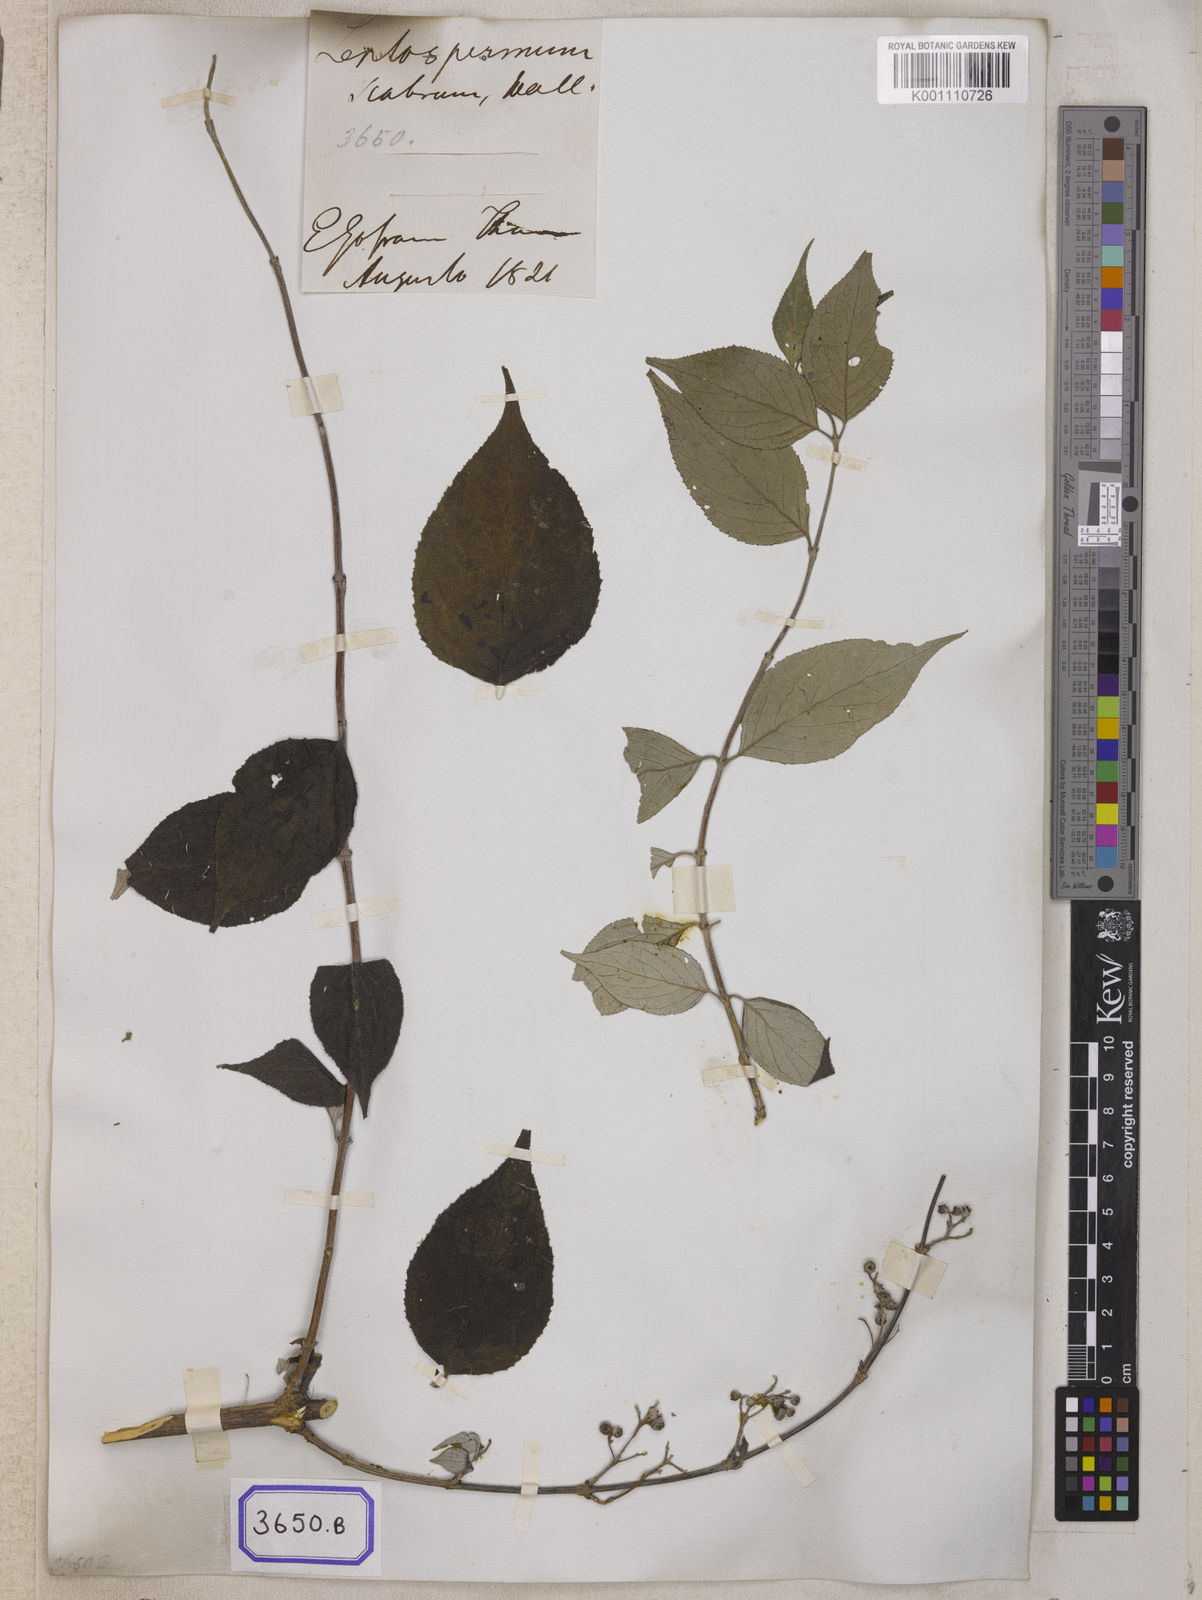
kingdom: Plantae
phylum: Tracheophyta
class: Magnoliopsida
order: Cornales
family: Hydrangeaceae
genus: Deutzia
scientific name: Deutzia
